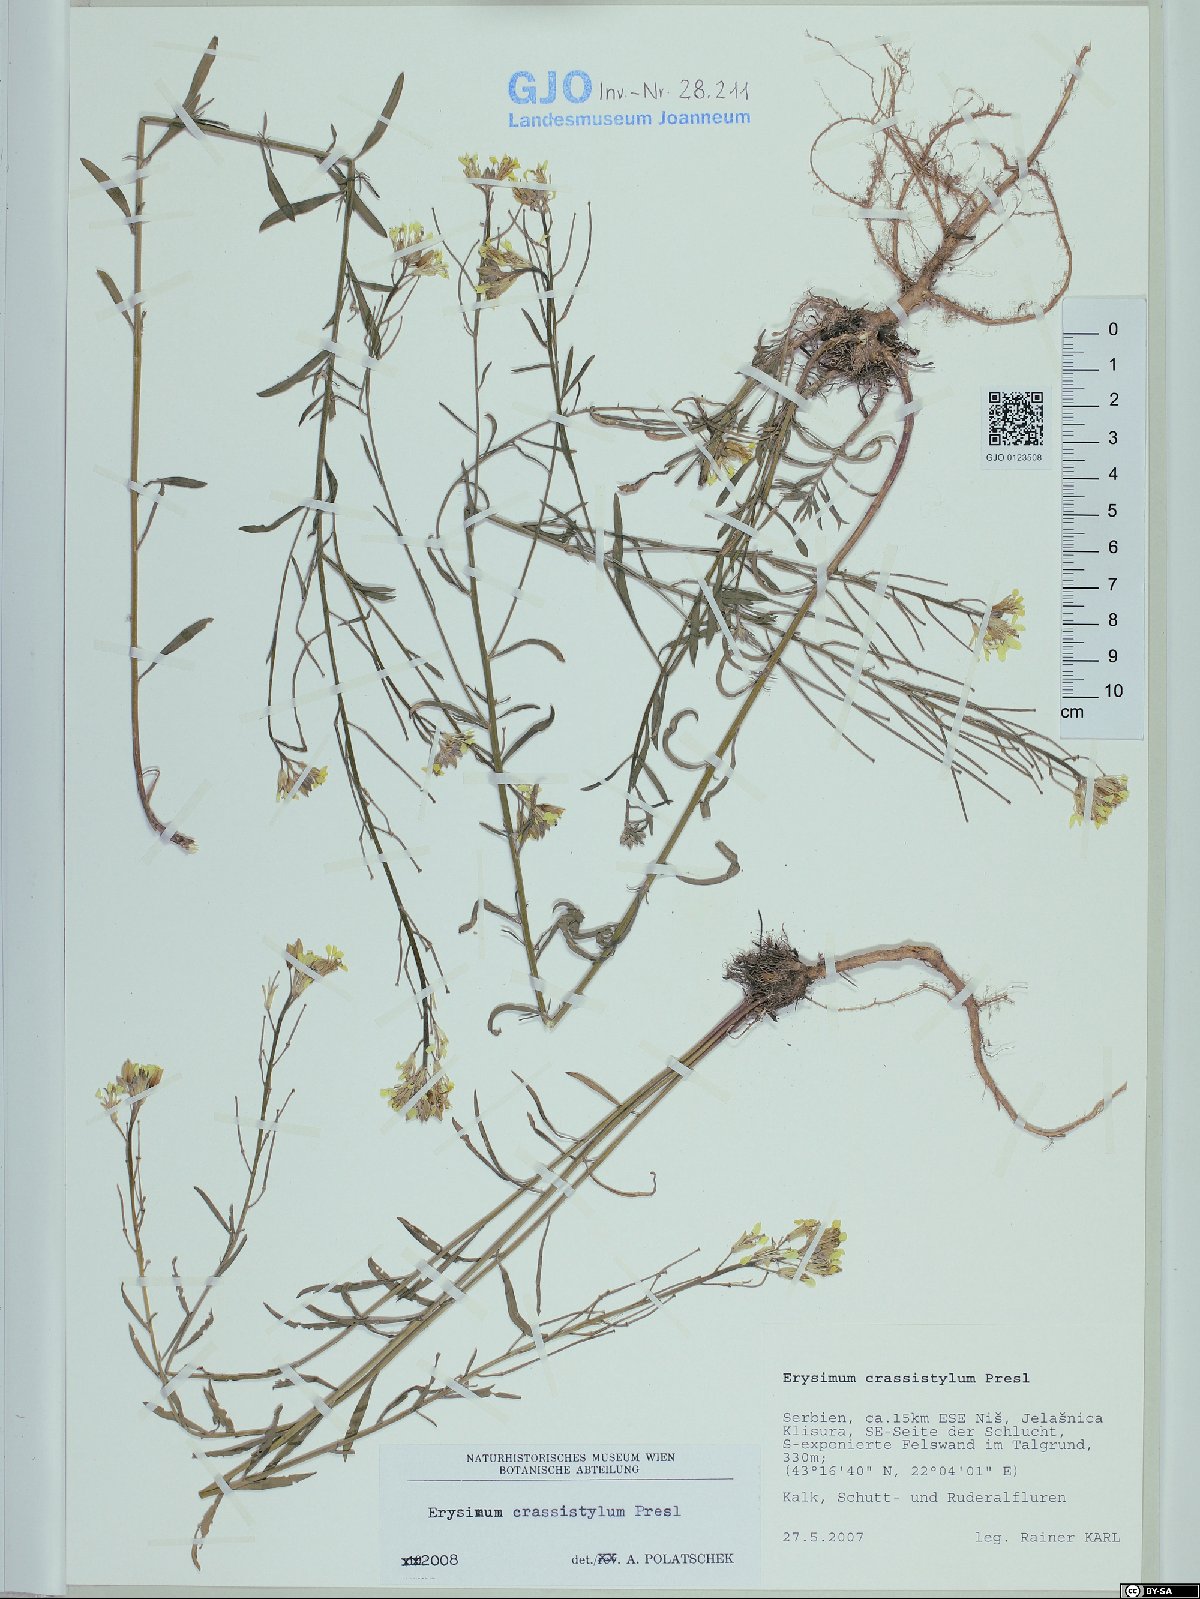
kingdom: Plantae
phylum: Tracheophyta
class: Magnoliopsida
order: Brassicales
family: Brassicaceae
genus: Erysimum
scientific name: Erysimum crassistylum
